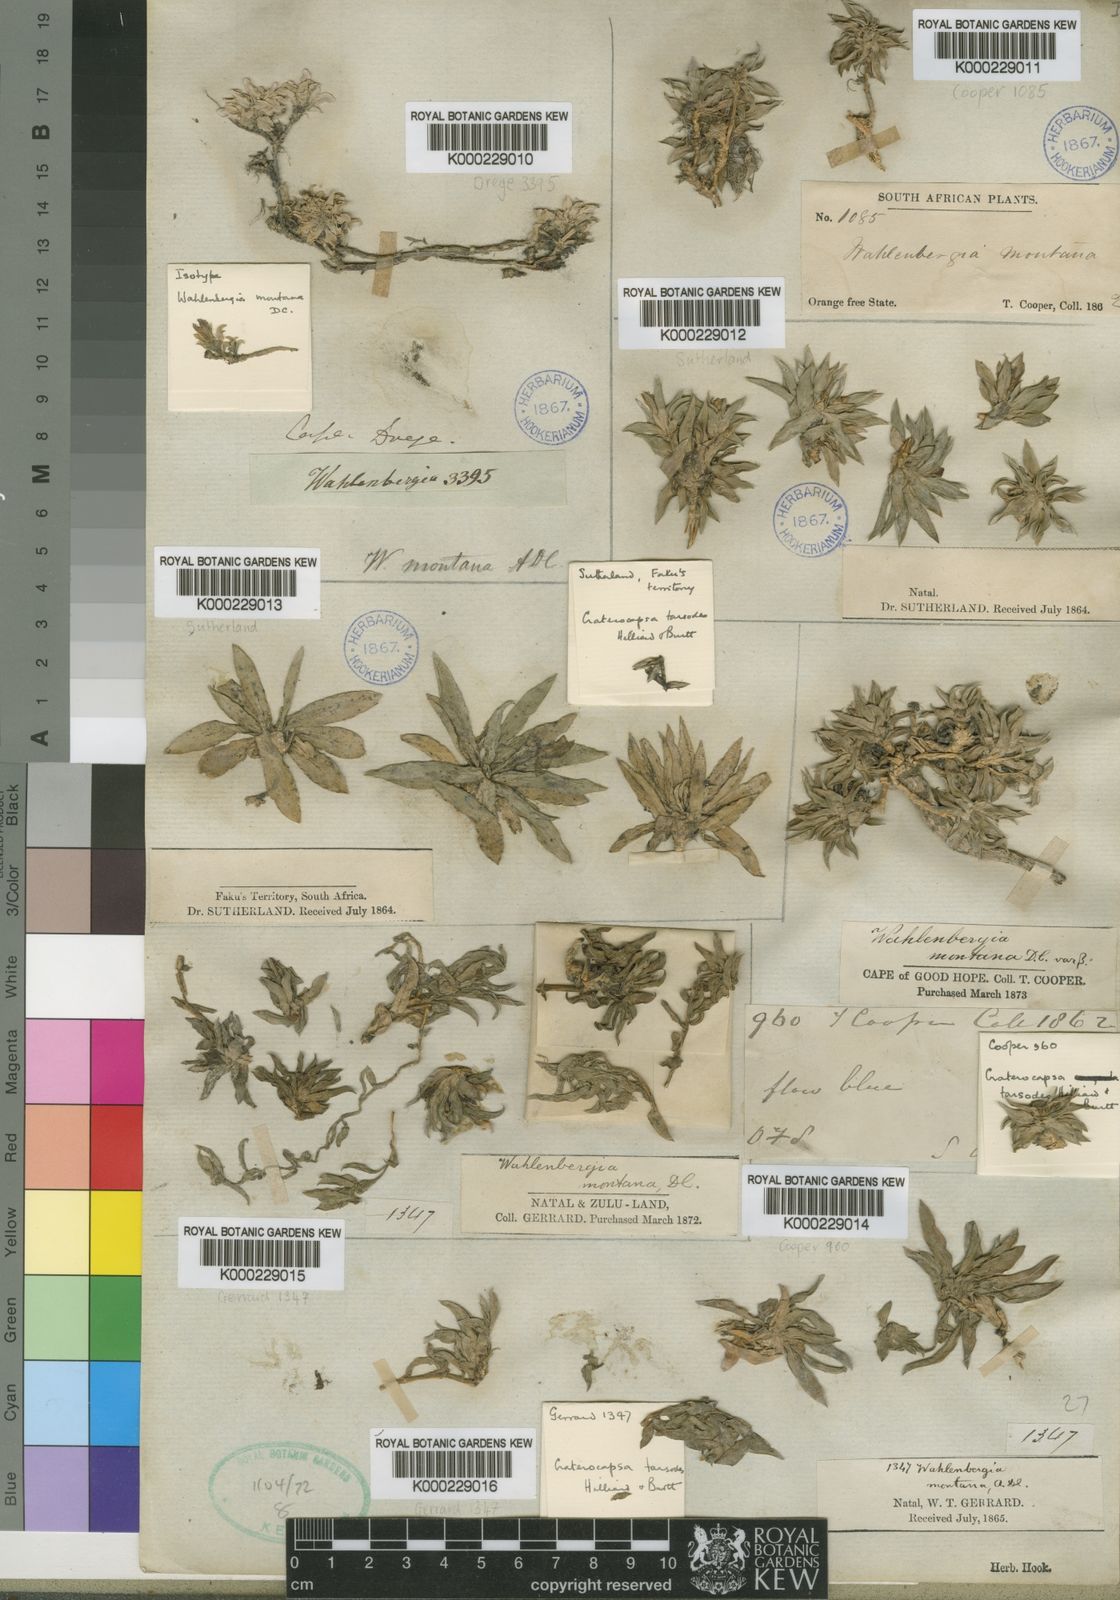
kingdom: Plantae
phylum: Tracheophyta
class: Magnoliopsida
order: Asterales
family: Campanulaceae
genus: Craterocapsa
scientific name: Craterocapsa montana
